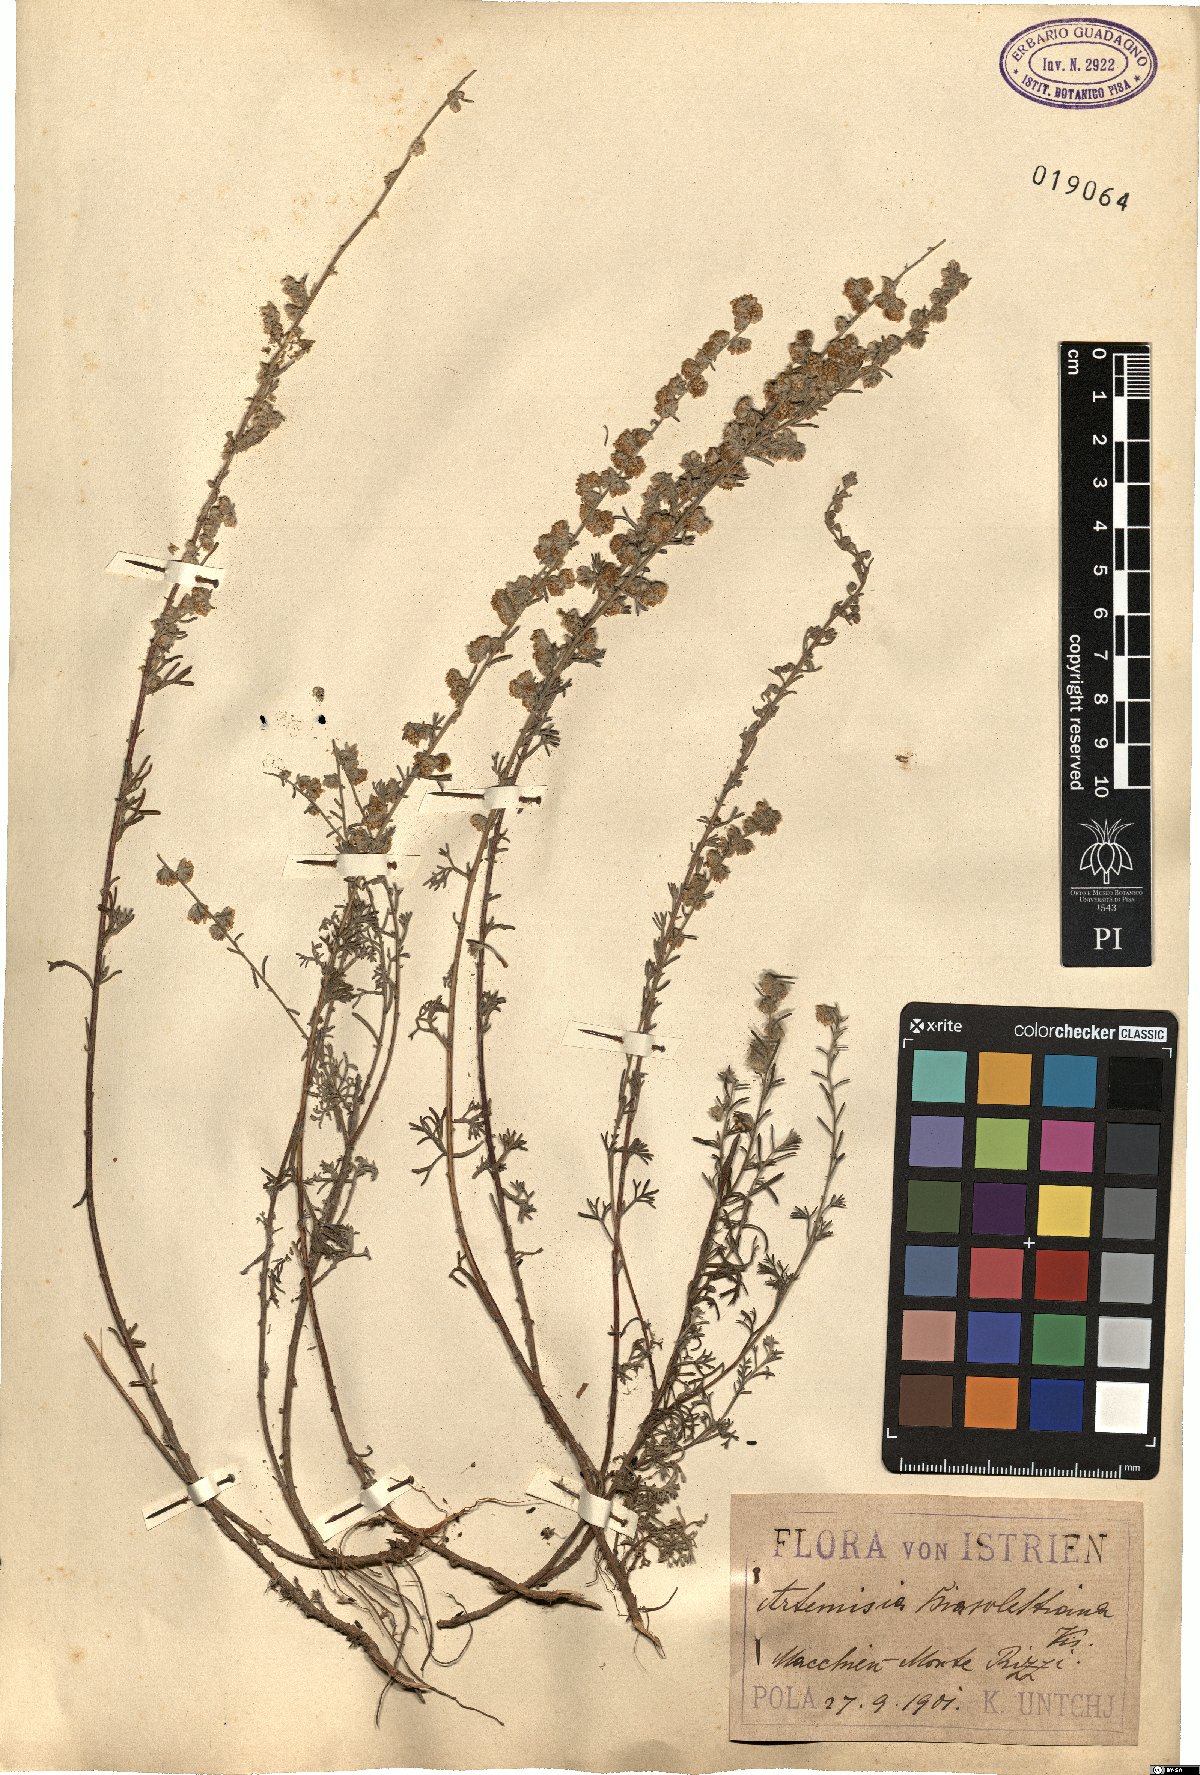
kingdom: Plantae
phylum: Tracheophyta
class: Magnoliopsida
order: Asterales
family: Asteraceae
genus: Artemisia
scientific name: Artemisia alba
